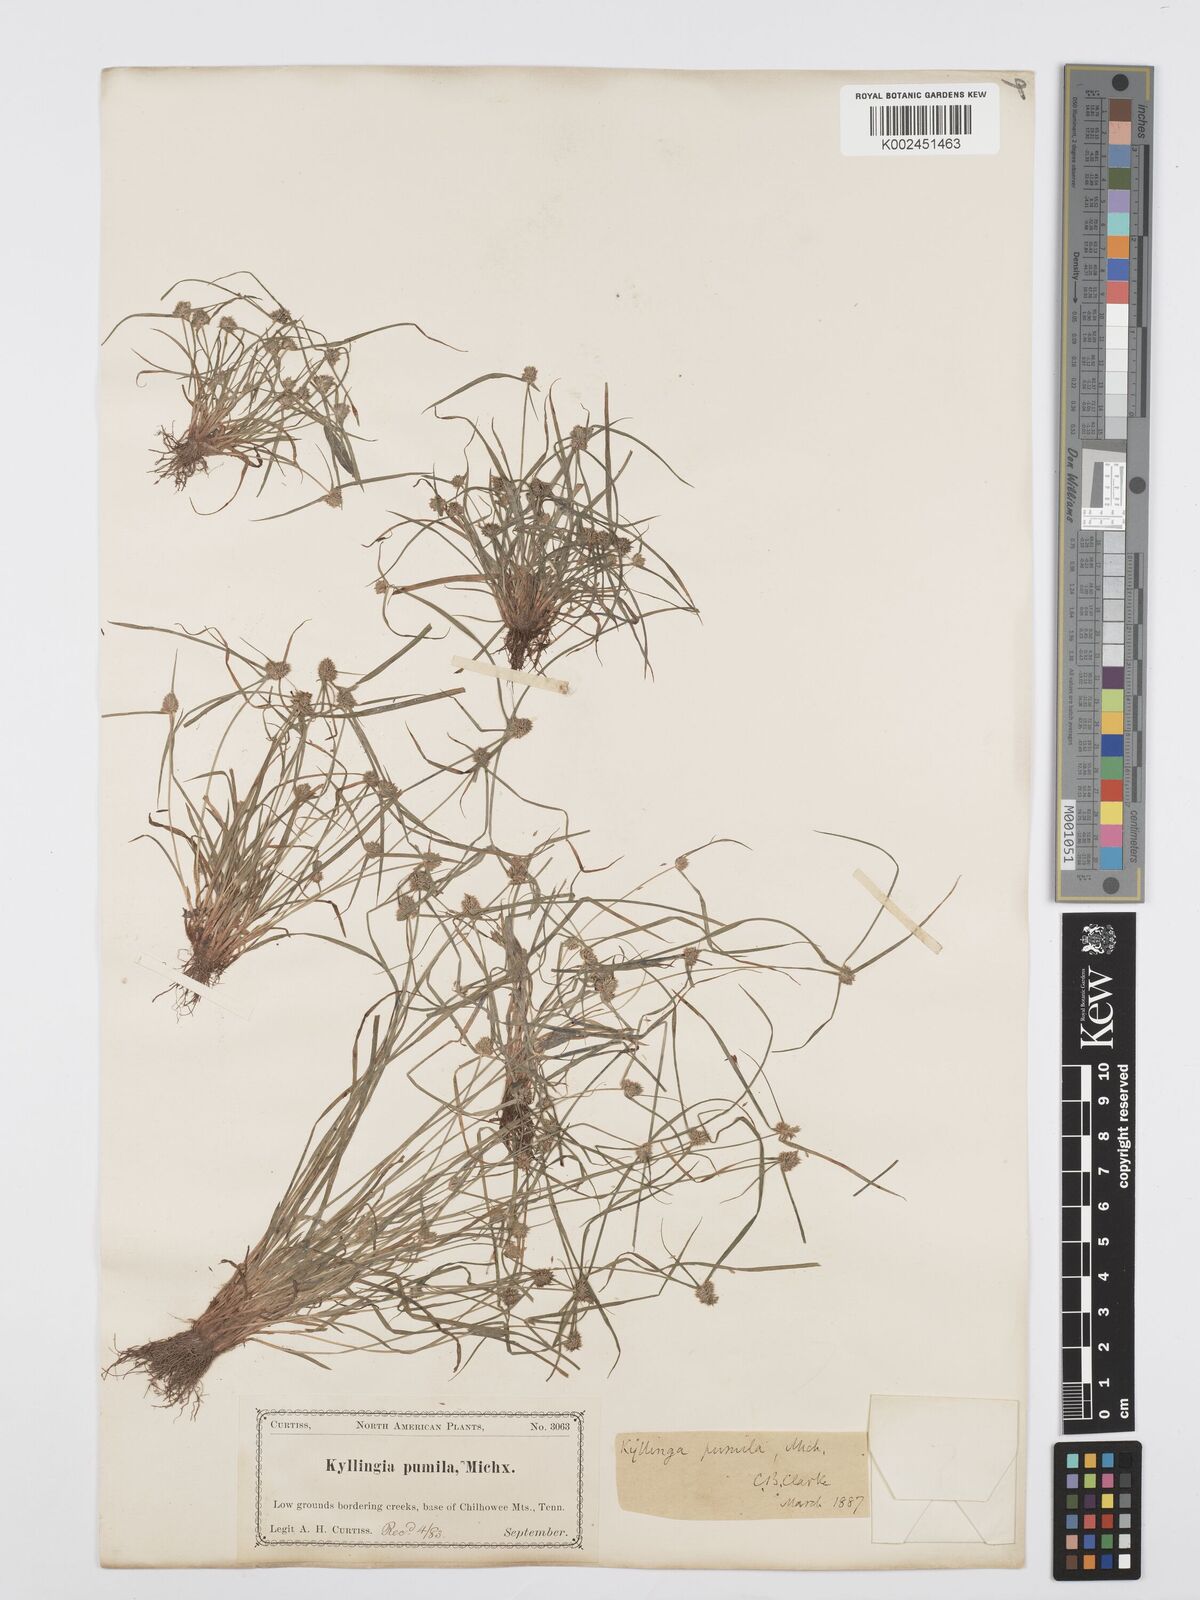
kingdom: Plantae
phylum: Tracheophyta
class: Liliopsida
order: Poales
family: Cyperaceae
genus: Cyperus
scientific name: Cyperus
